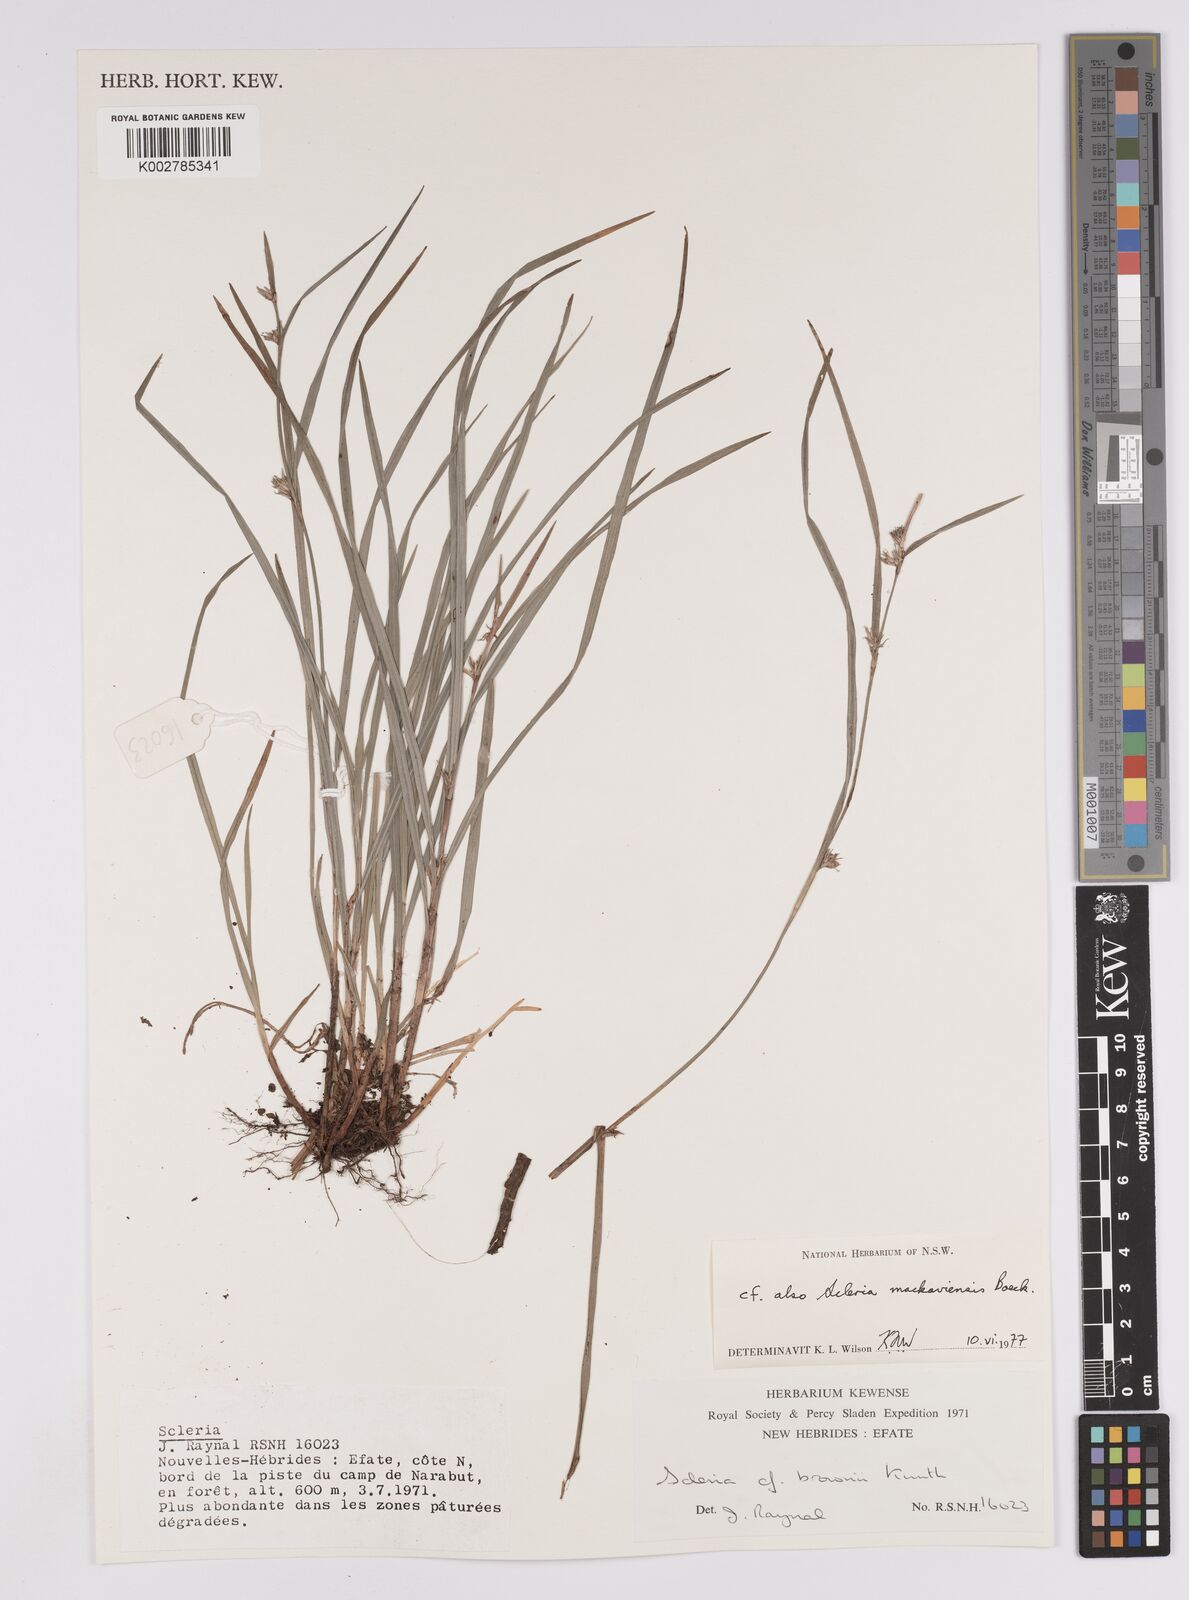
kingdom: Plantae
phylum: Tracheophyta
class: Liliopsida
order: Poales
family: Cyperaceae
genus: Scleria
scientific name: Scleria brownii
